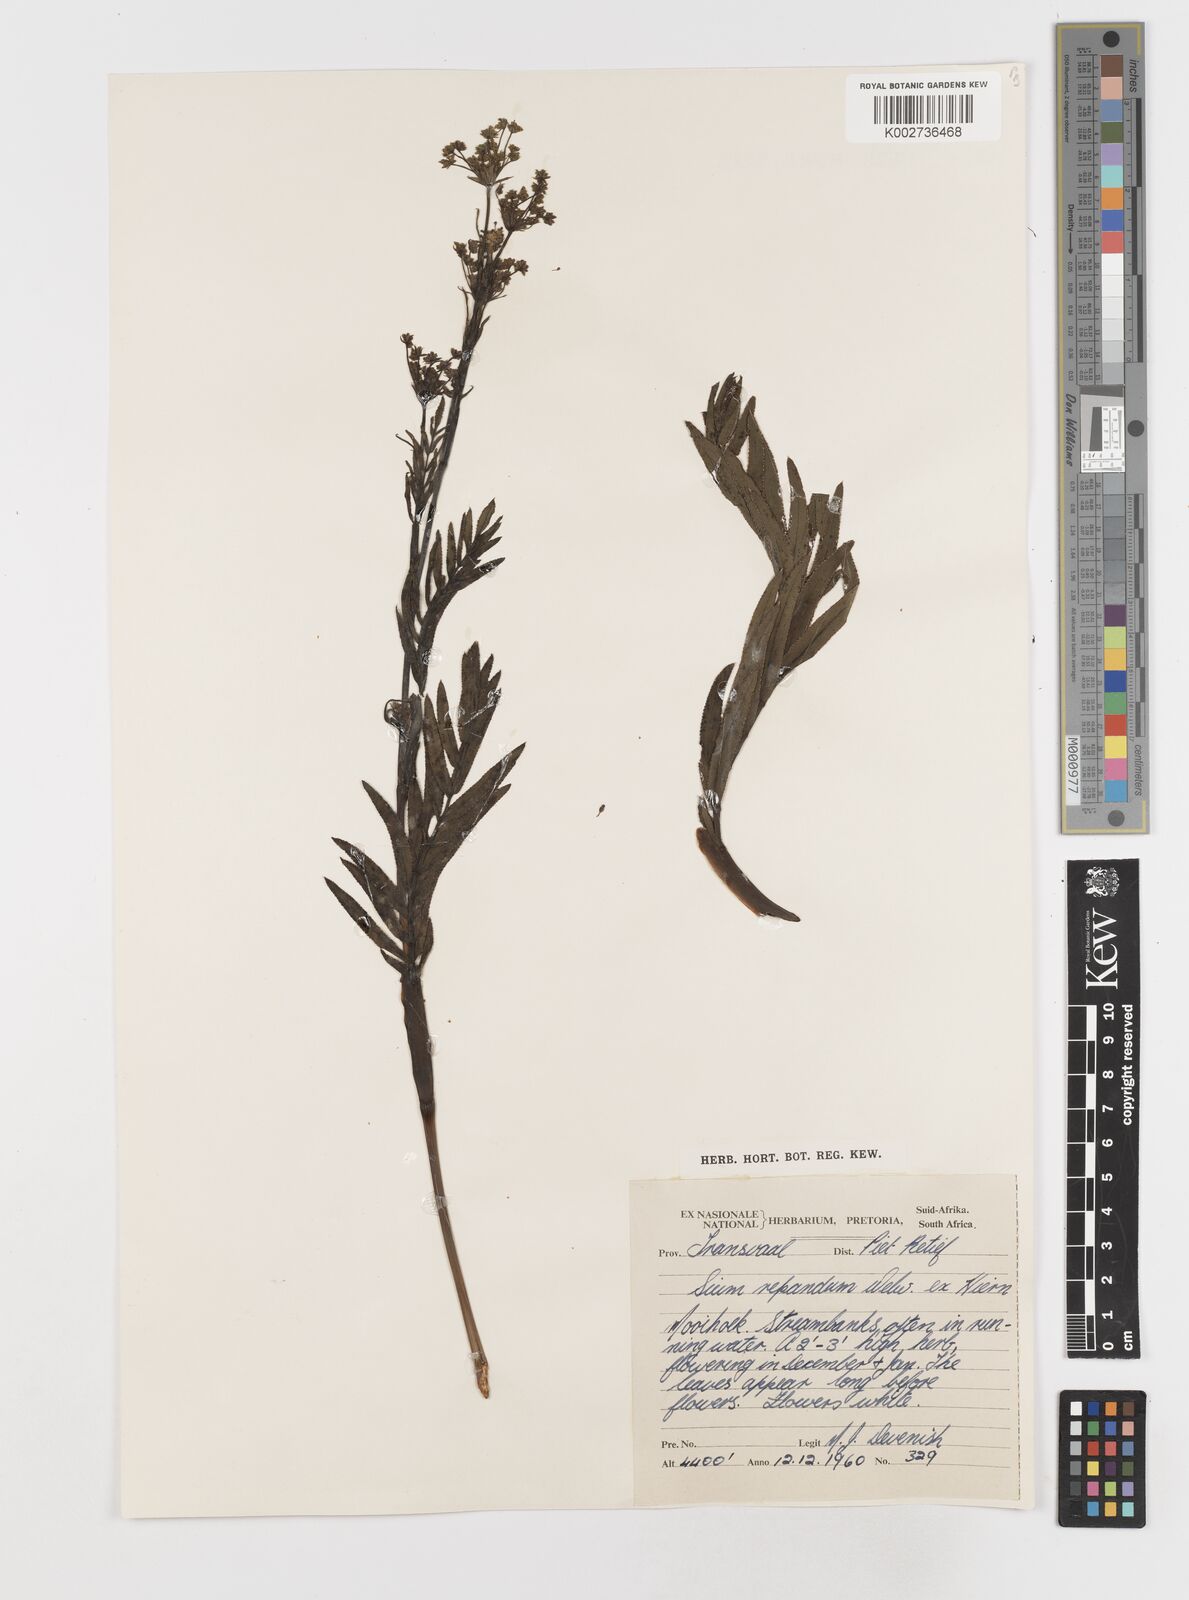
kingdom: Plantae
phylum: Tracheophyta
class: Magnoliopsida
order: Apiales
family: Apiaceae
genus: Berula
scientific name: Berula repanda
